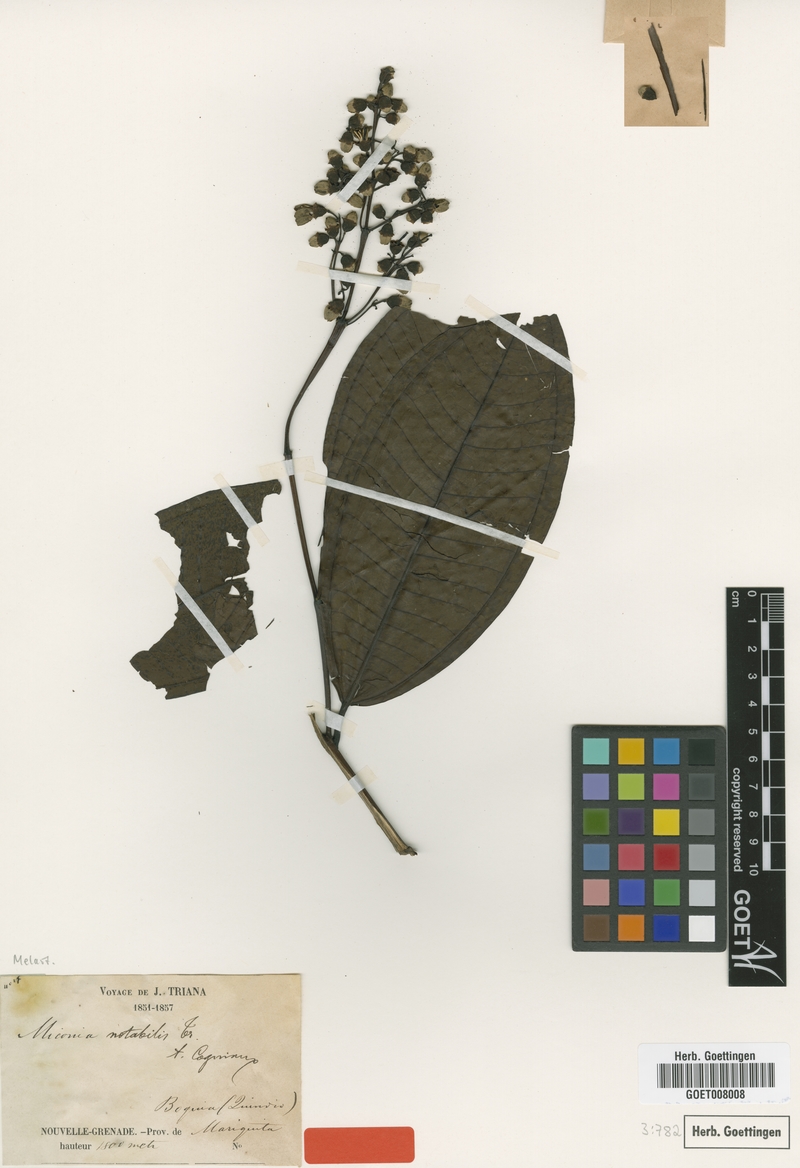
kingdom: Plantae
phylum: Tracheophyta
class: Magnoliopsida
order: Myrtales
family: Melastomataceae
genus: Miconia
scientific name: Miconia notabilis
